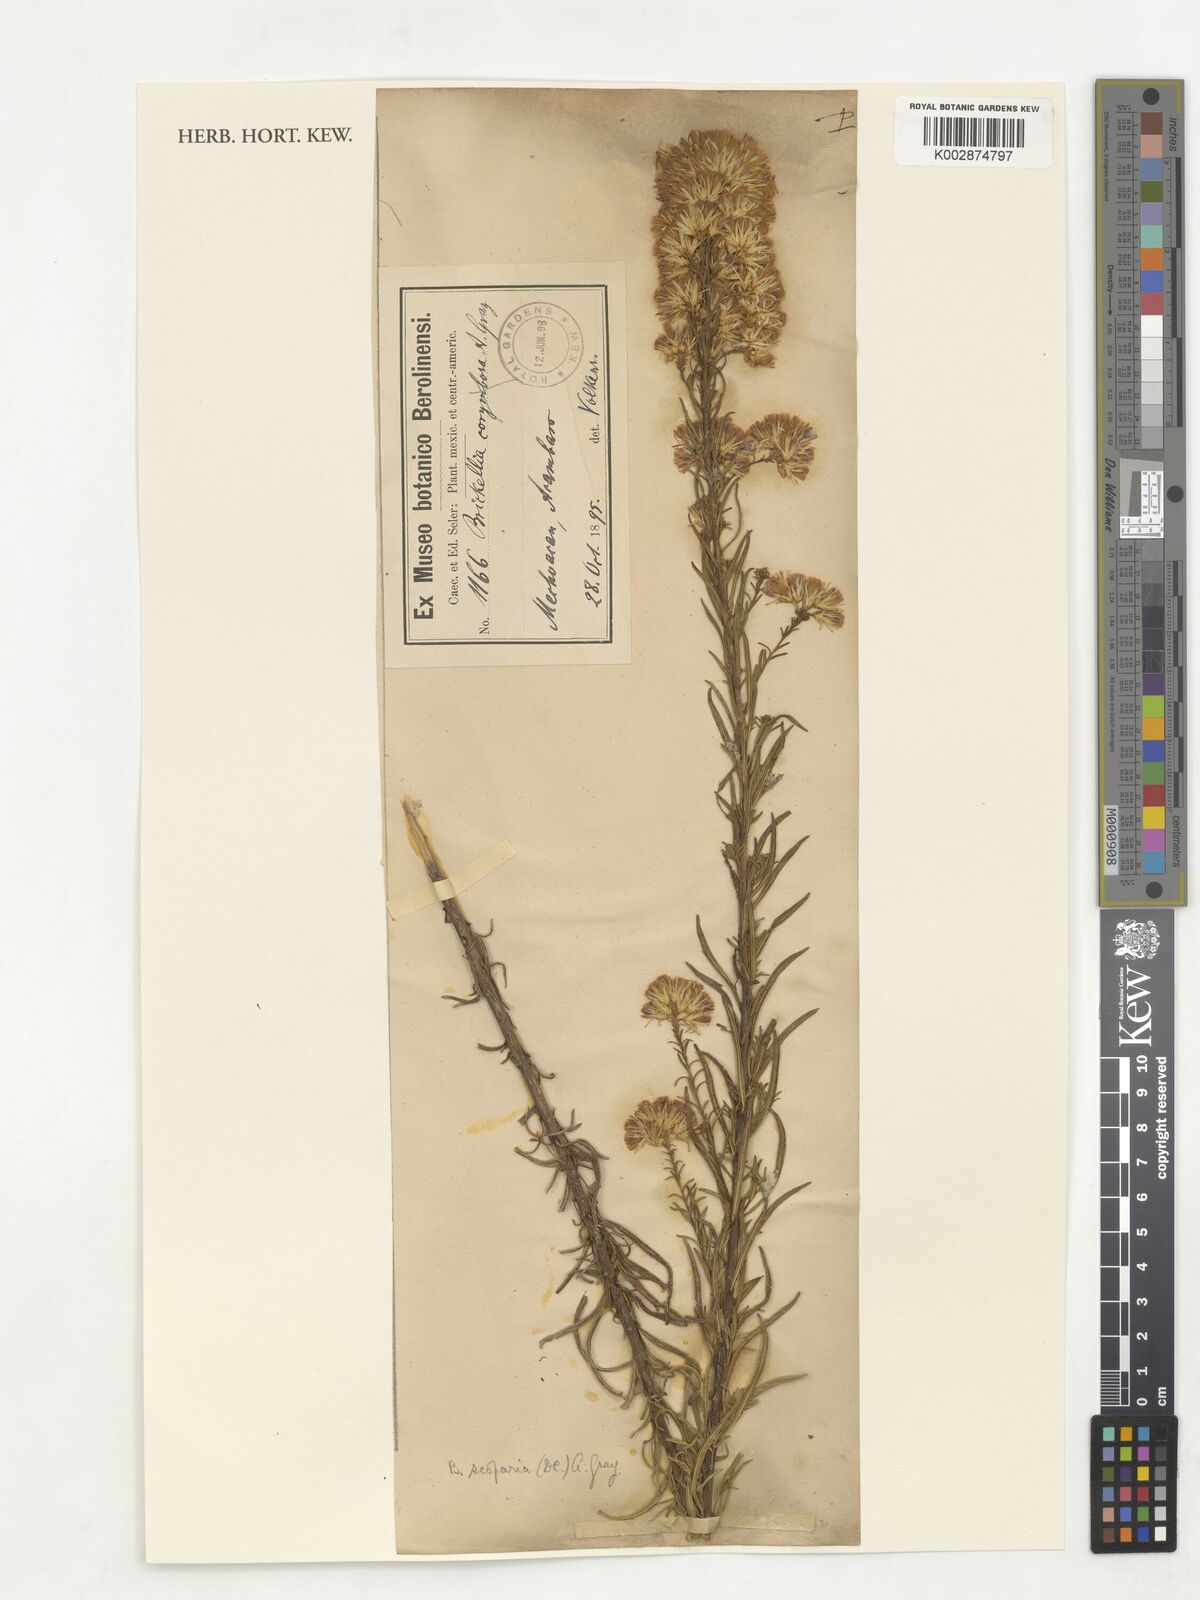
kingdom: Plantae
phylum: Tracheophyta
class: Magnoliopsida
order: Asterales
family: Asteraceae
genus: Brickellia
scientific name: Brickellia scoparia
